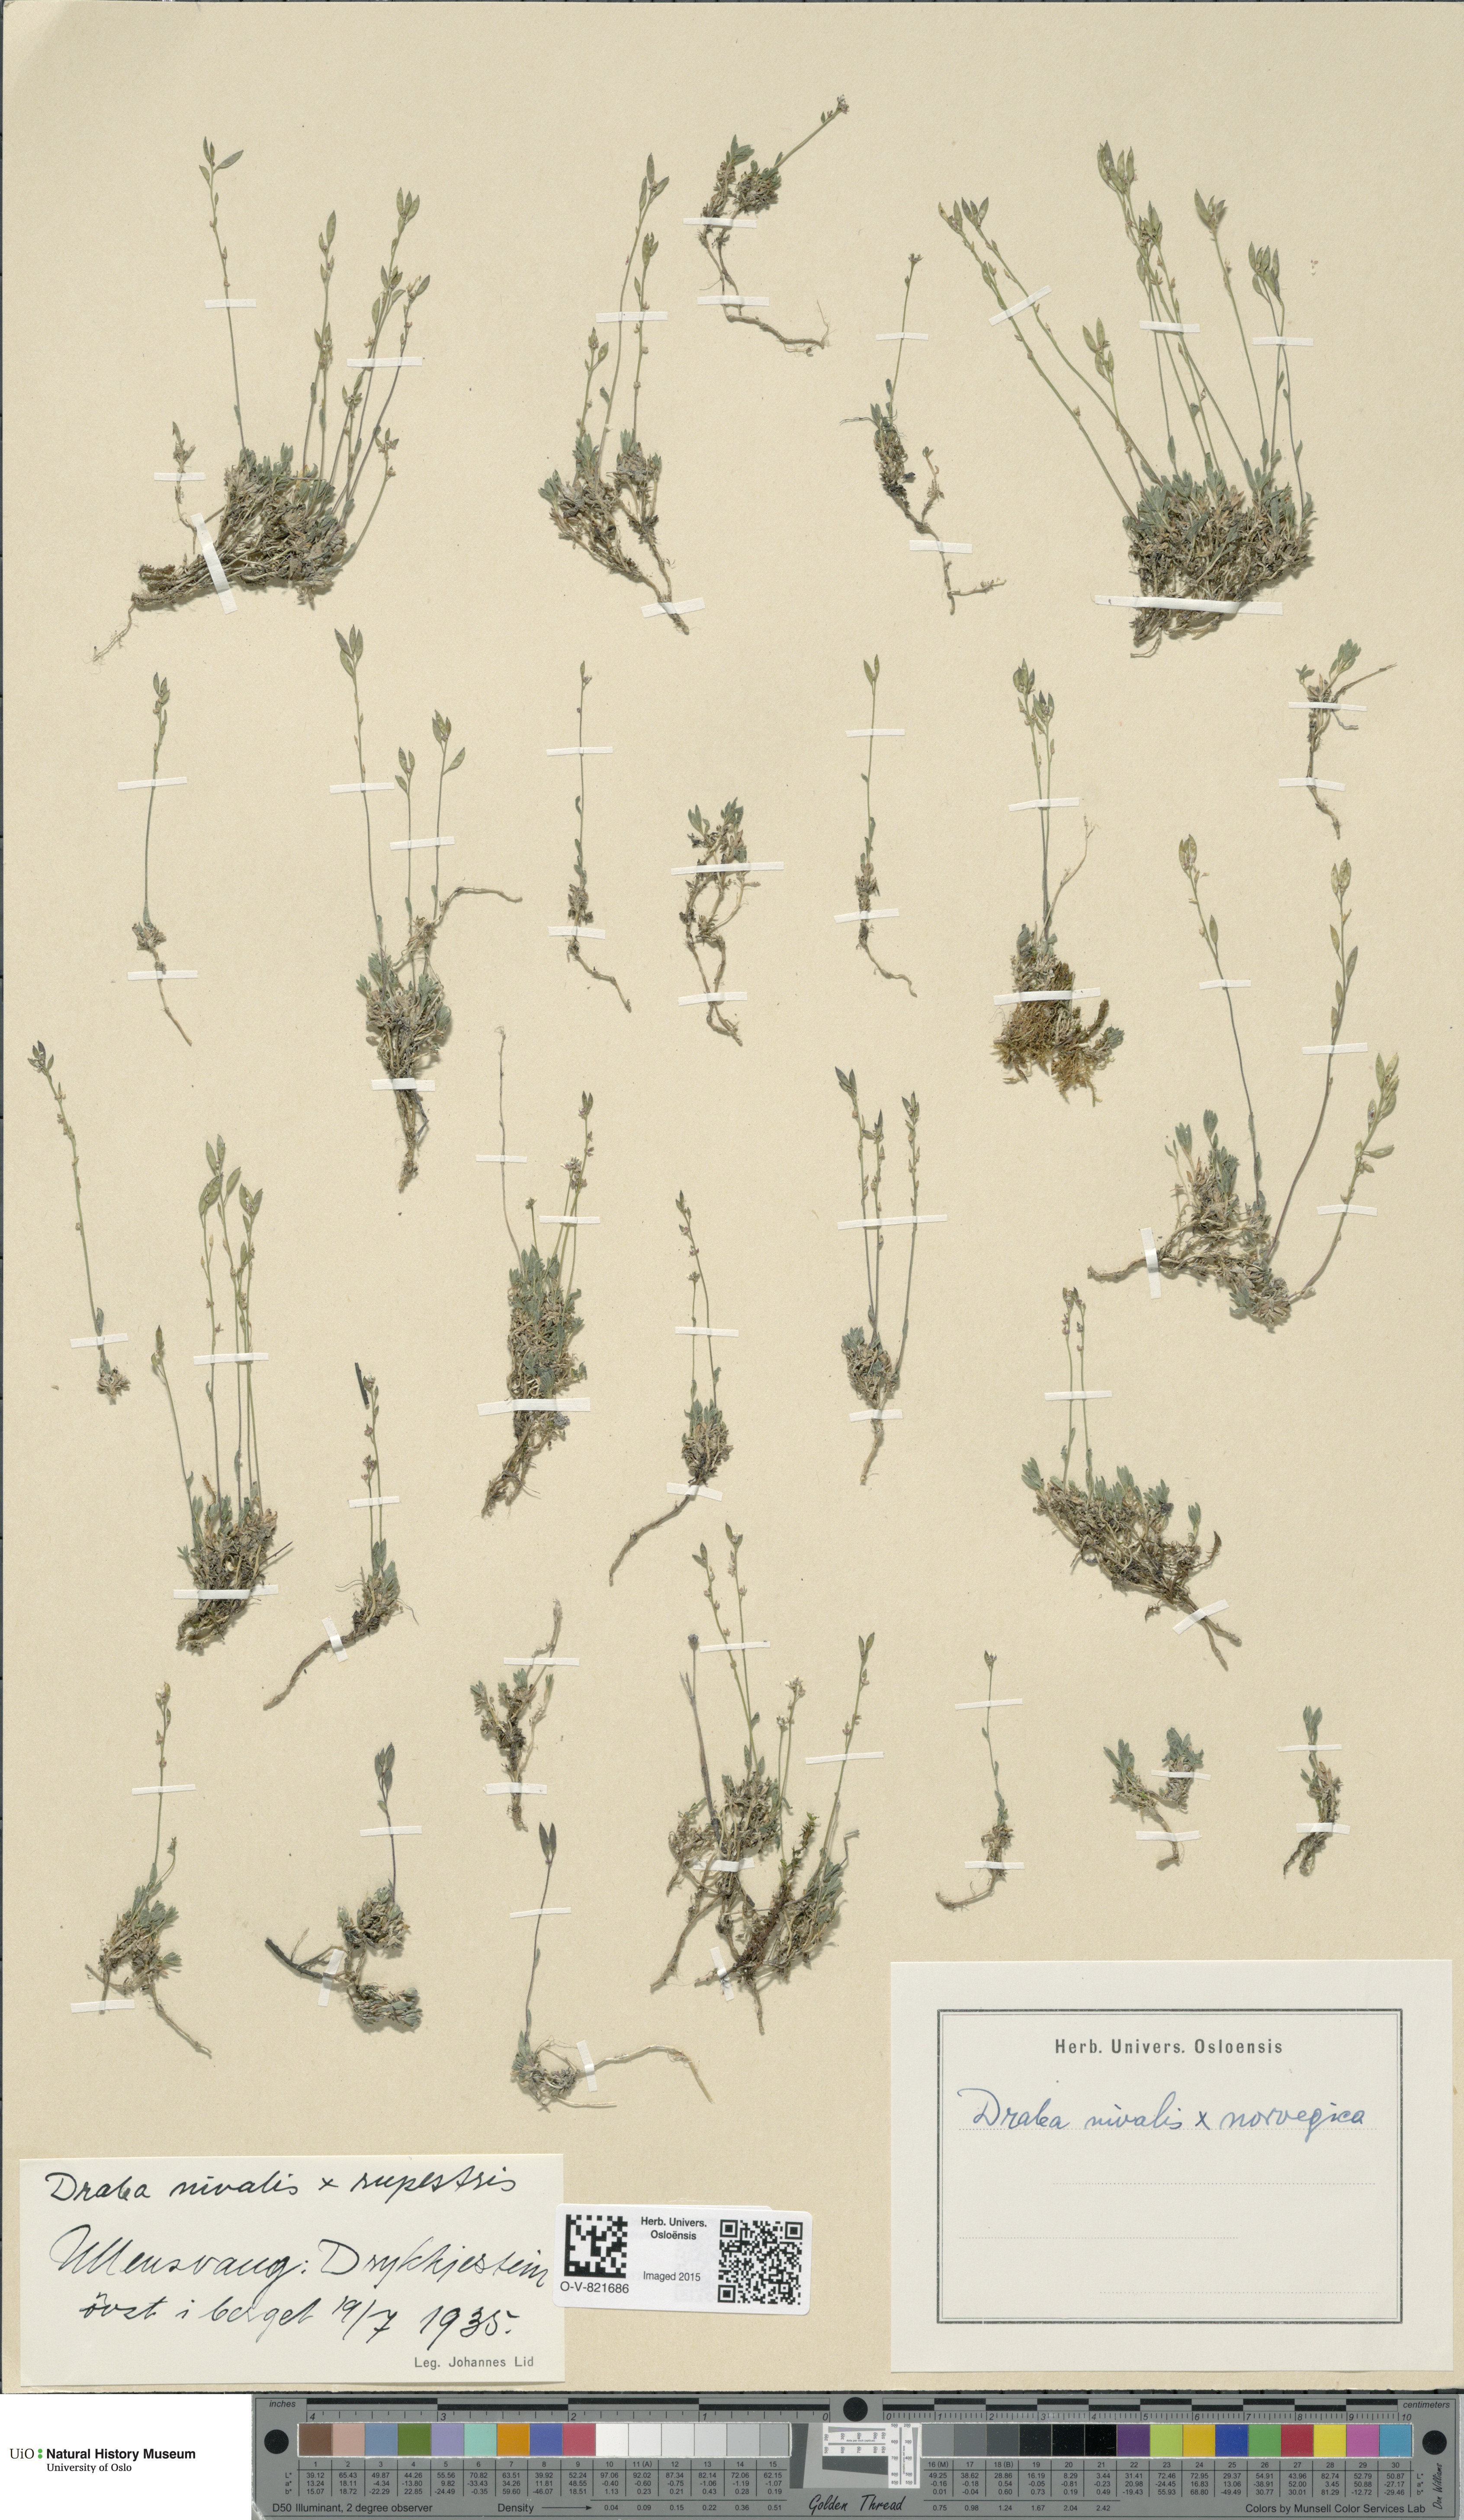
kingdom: Plantae
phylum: Tracheophyta
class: Magnoliopsida
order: Brassicales
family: Brassicaceae
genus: Draba
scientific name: Draba
